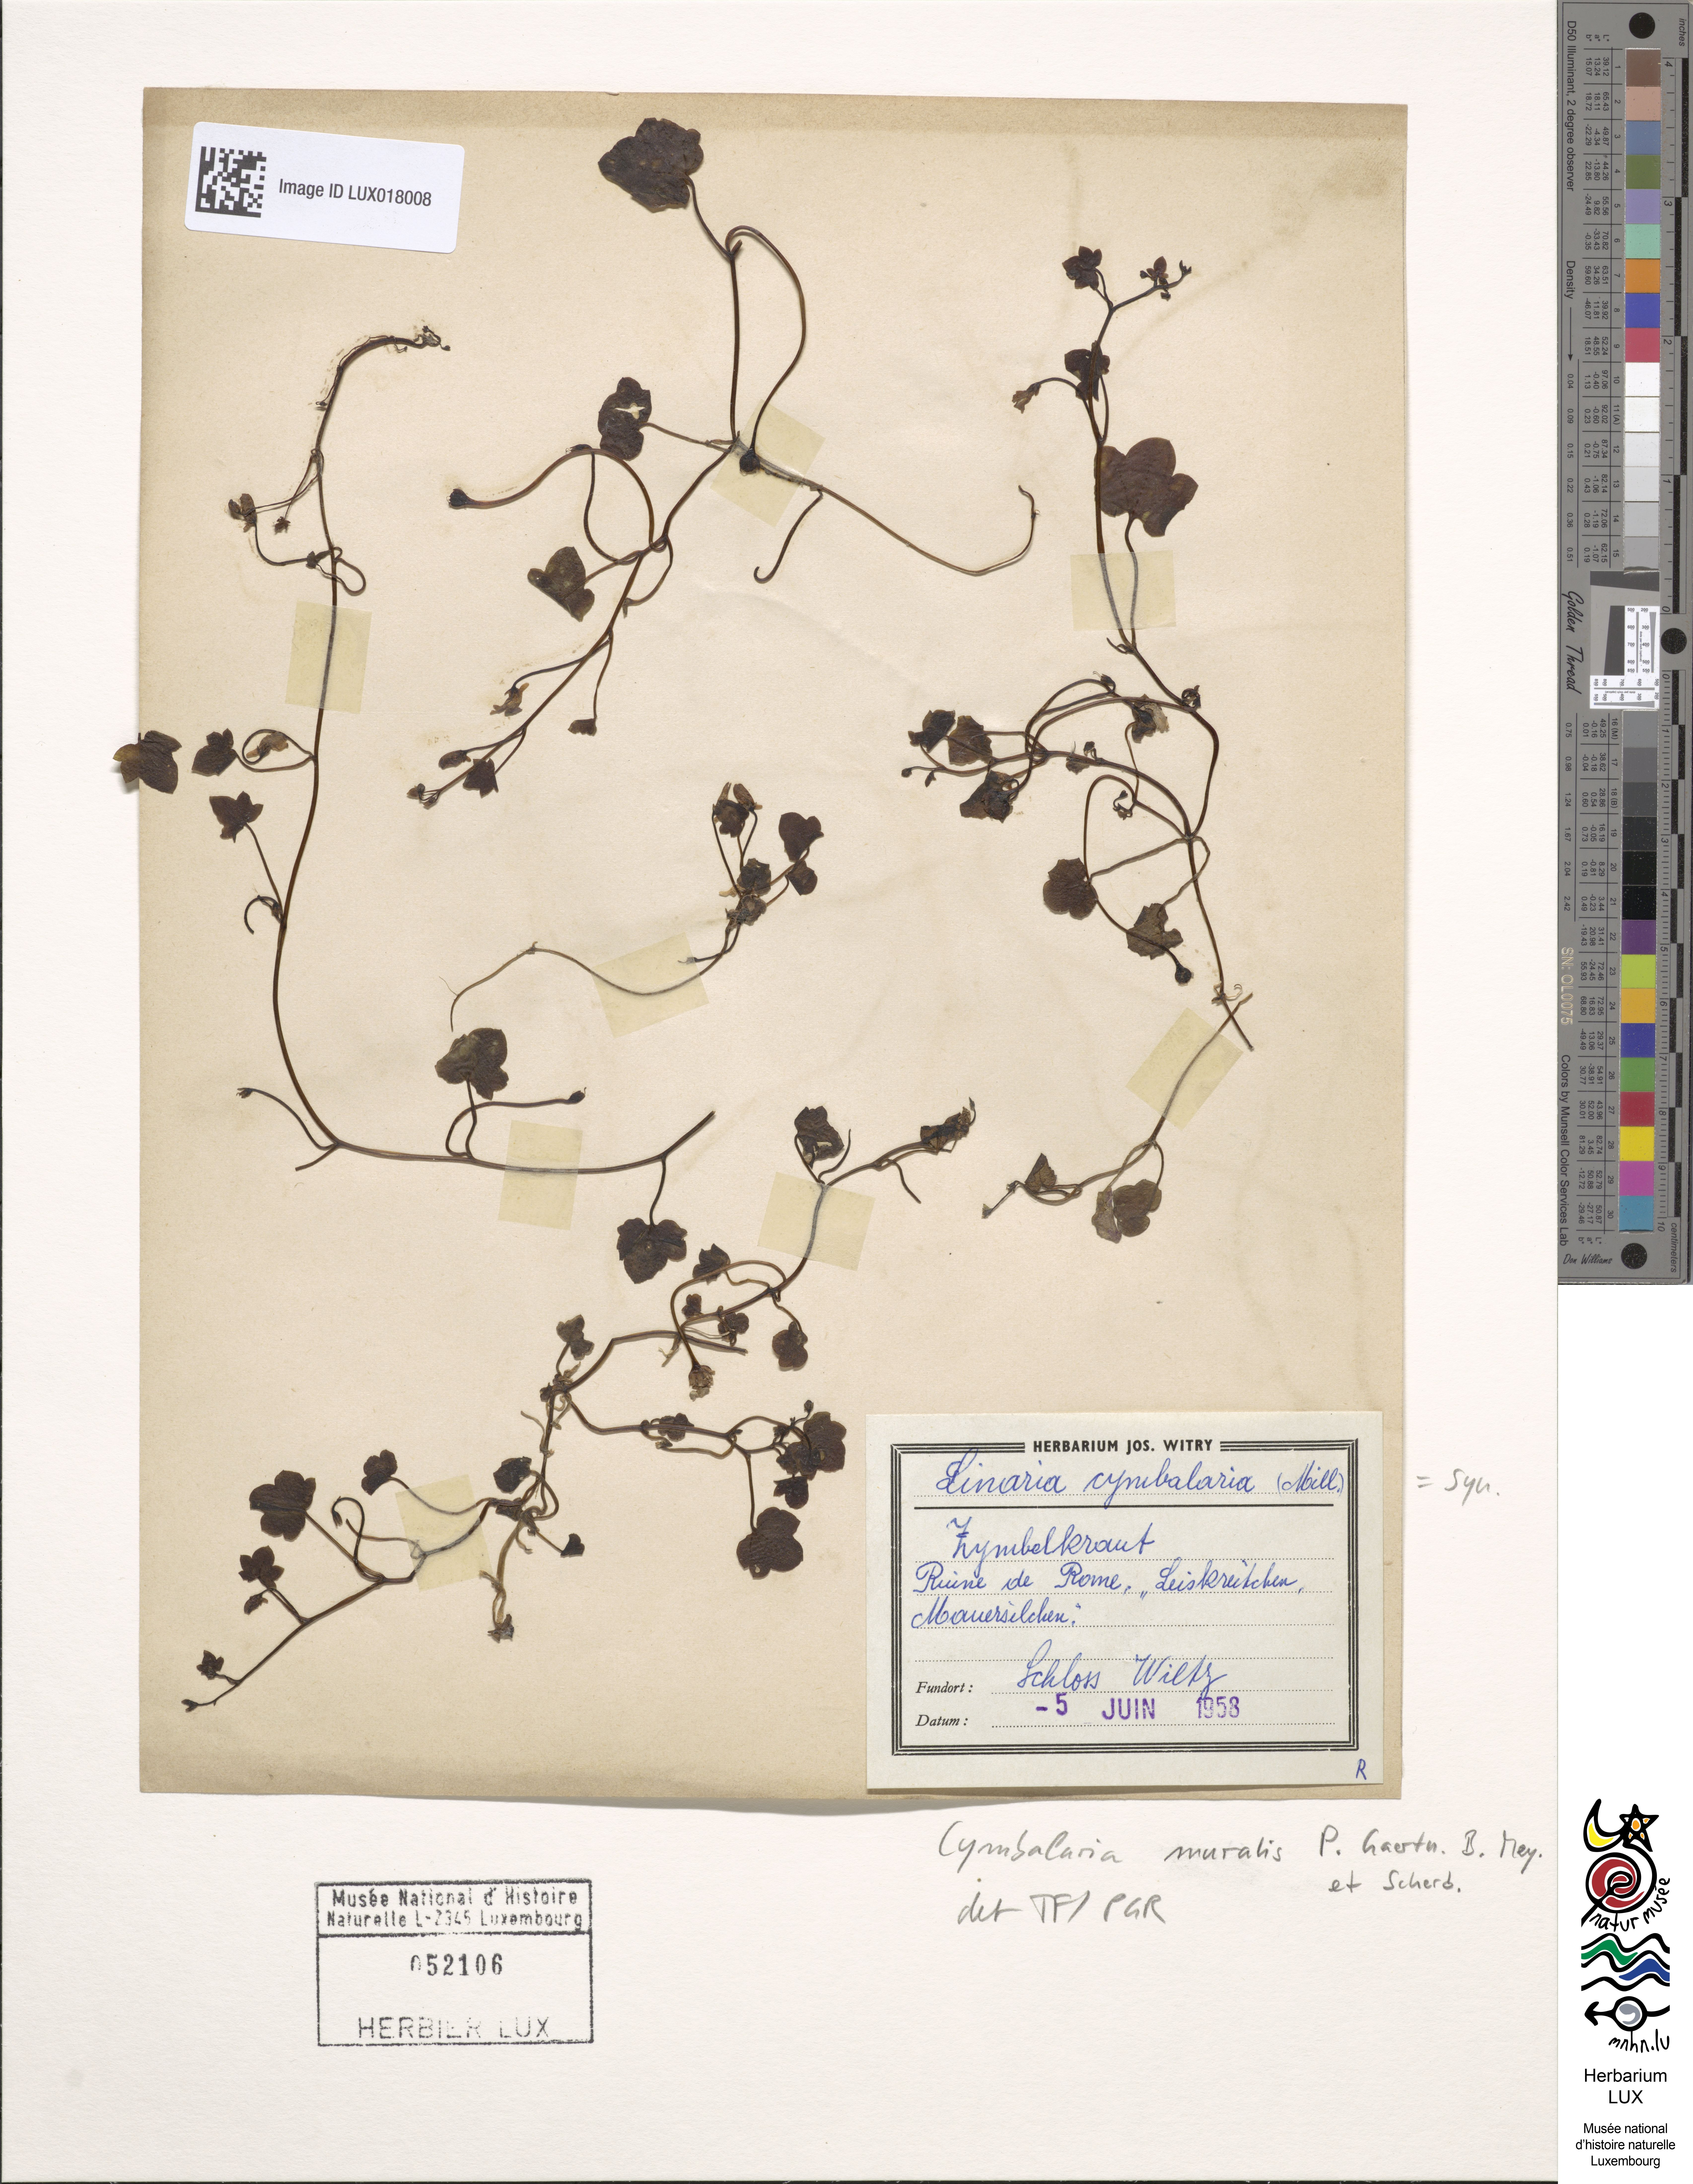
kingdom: Plantae
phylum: Tracheophyta
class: Magnoliopsida
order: Lamiales
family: Plantaginaceae
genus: Cymbalaria
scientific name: Cymbalaria muralis
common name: Ivy-leaved toadflax
